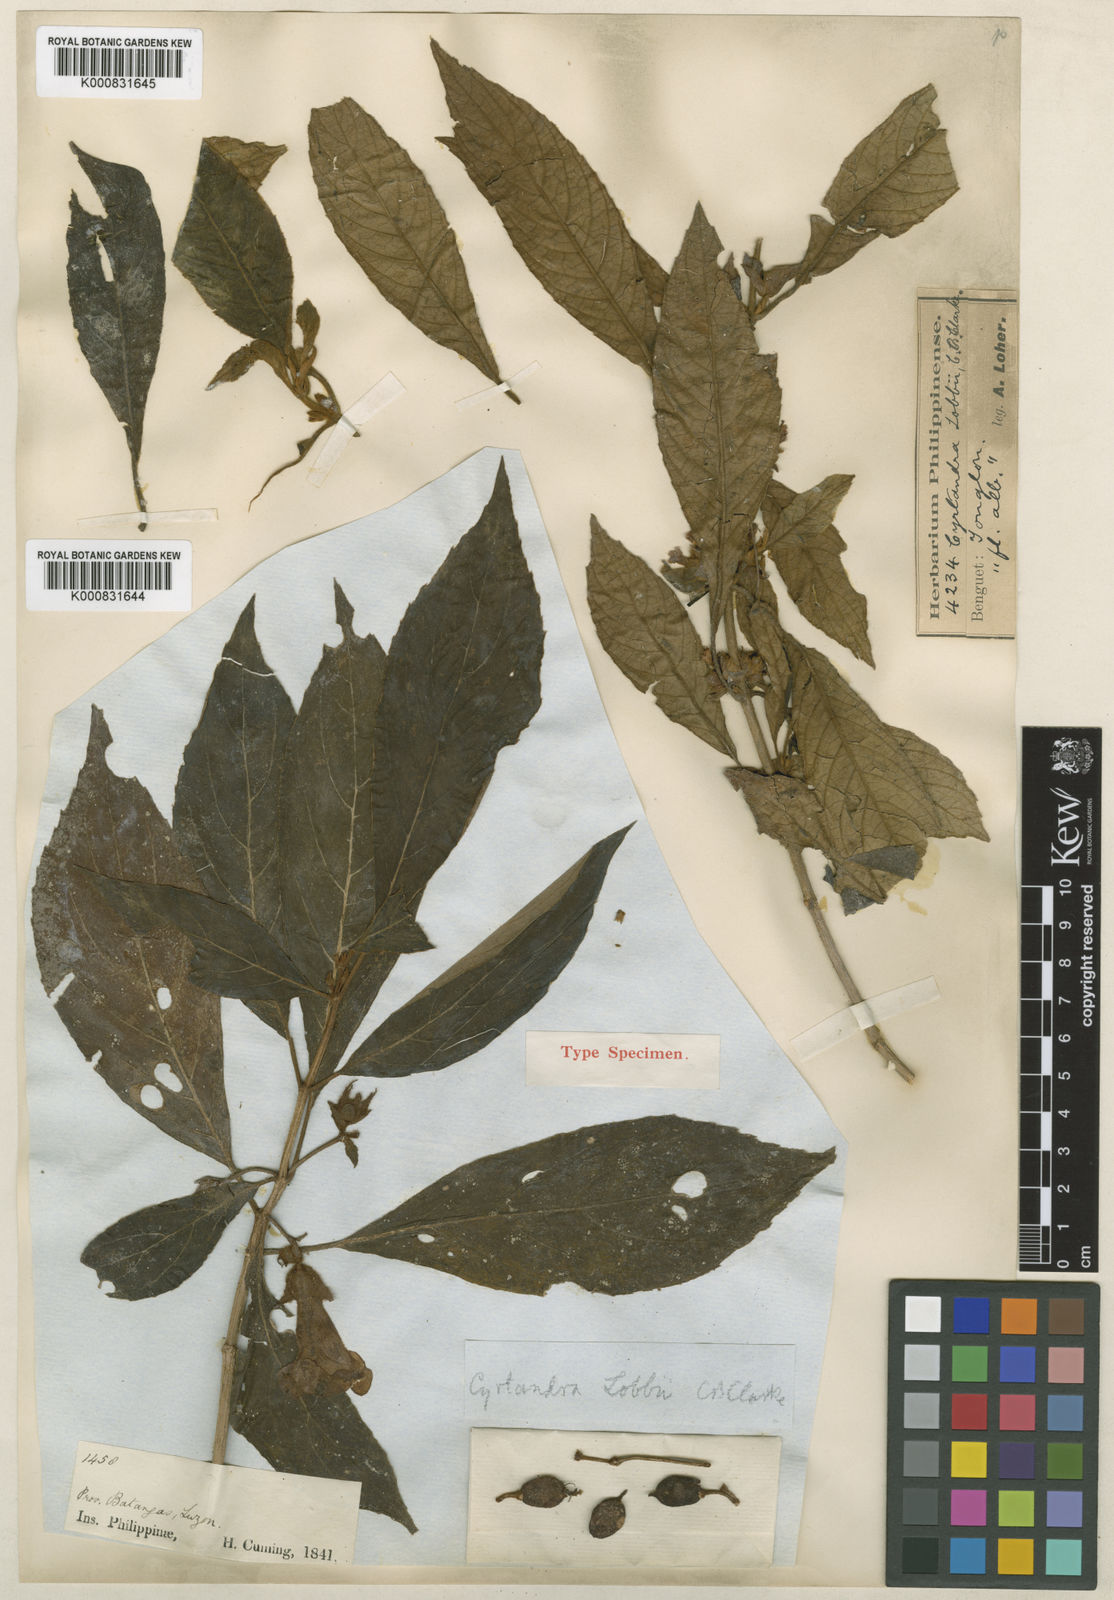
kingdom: Plantae
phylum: Tracheophyta
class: Magnoliopsida
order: Lamiales
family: Gesneriaceae
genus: Cyrtandra
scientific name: Cyrtandra lobbii
